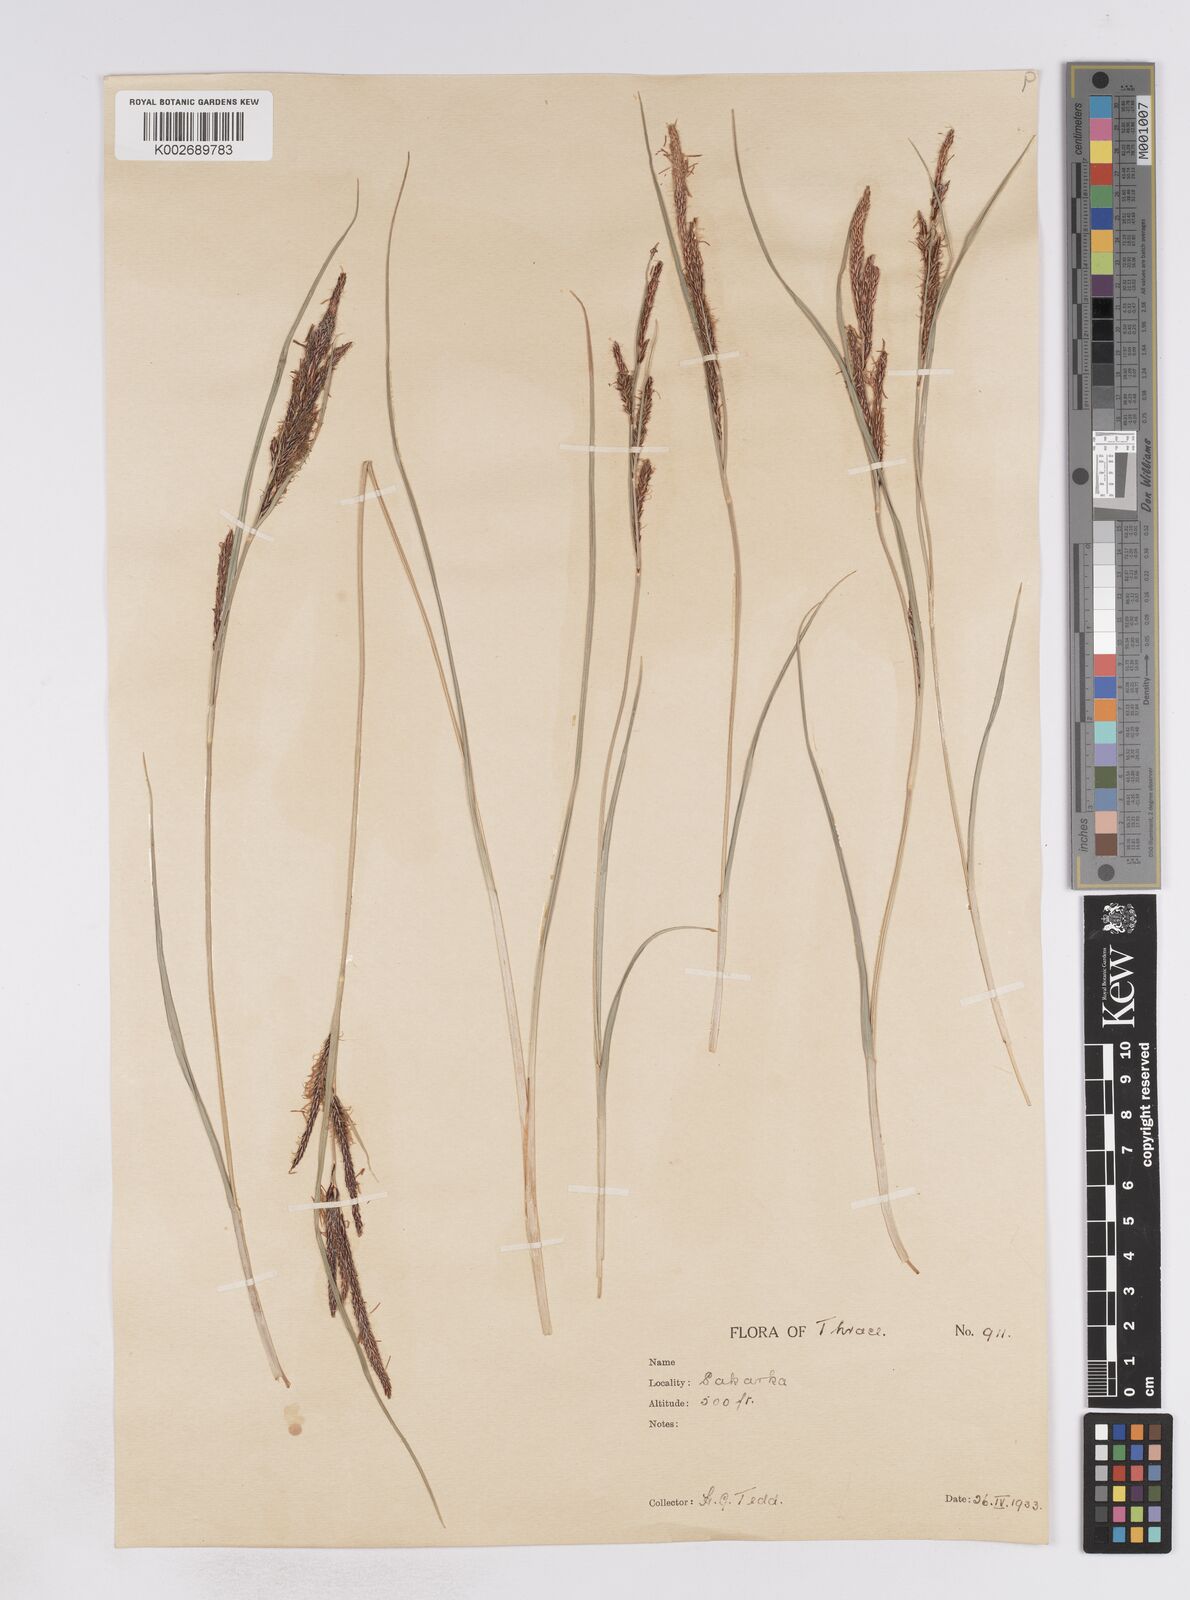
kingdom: Plantae
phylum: Tracheophyta
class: Liliopsida
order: Poales
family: Cyperaceae
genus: Carex
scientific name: Carex flacca
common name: Glaucous sedge
